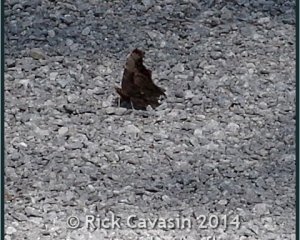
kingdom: Animalia
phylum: Arthropoda
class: Insecta
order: Lepidoptera
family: Nymphalidae
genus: Polygonia
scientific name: Polygonia progne
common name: Gray Comma
